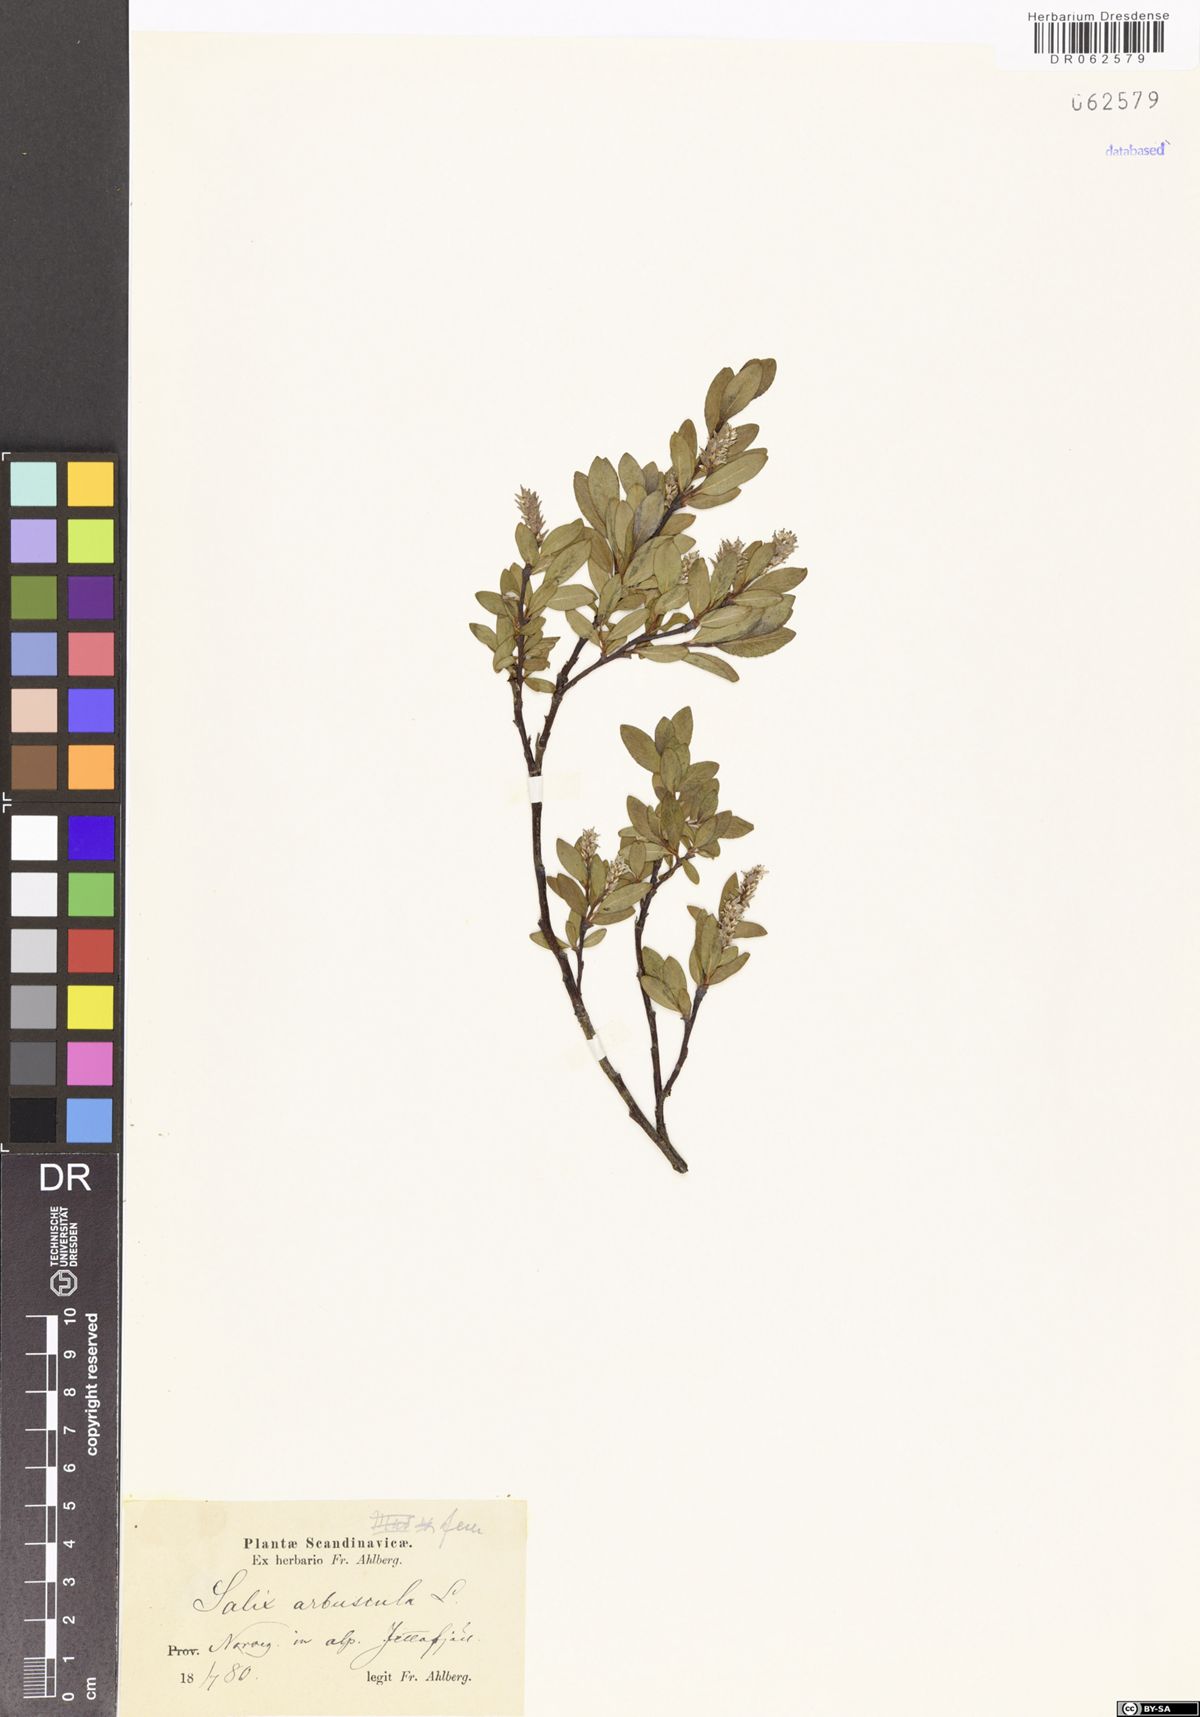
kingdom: Plantae
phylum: Tracheophyta
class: Magnoliopsida
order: Malpighiales
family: Salicaceae
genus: Salix
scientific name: Salix arbuscula
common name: Mountain willow
